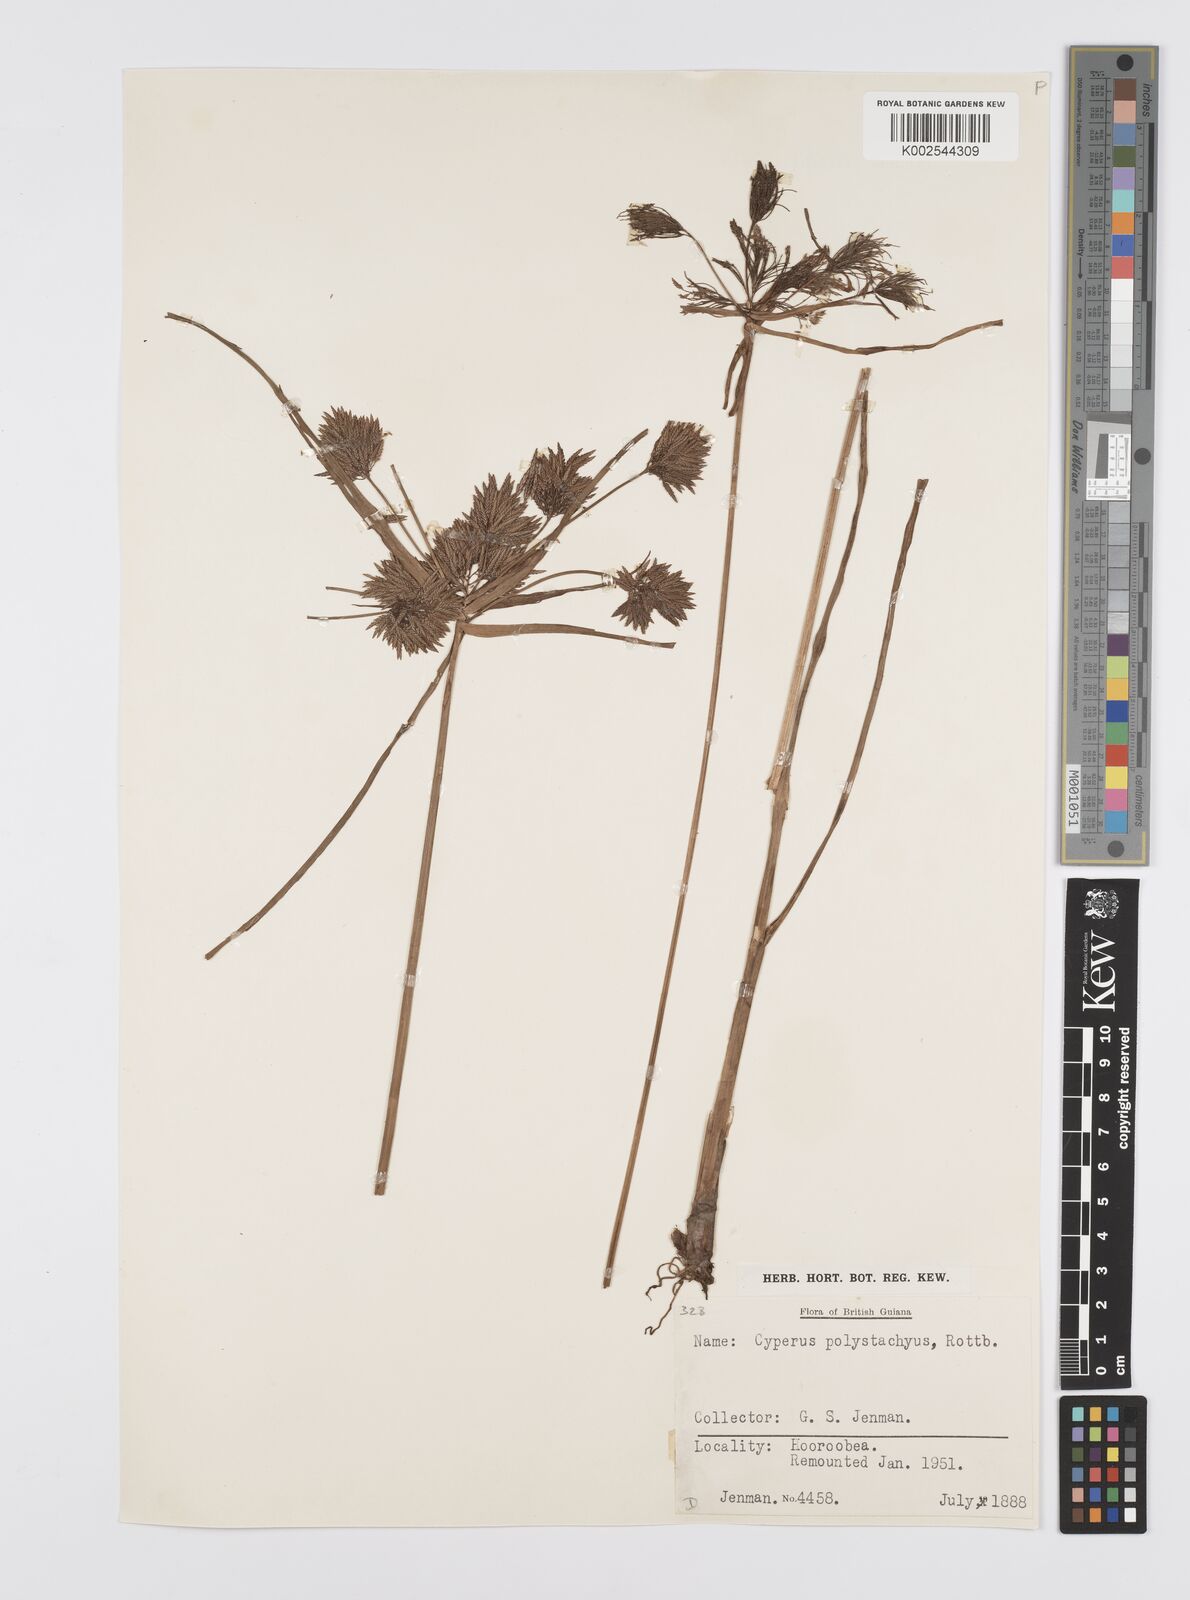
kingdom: Plantae
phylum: Tracheophyta
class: Liliopsida
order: Poales
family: Cyperaceae
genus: Cyperus
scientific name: Cyperus polystachyos
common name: Bunchy flat sedge
